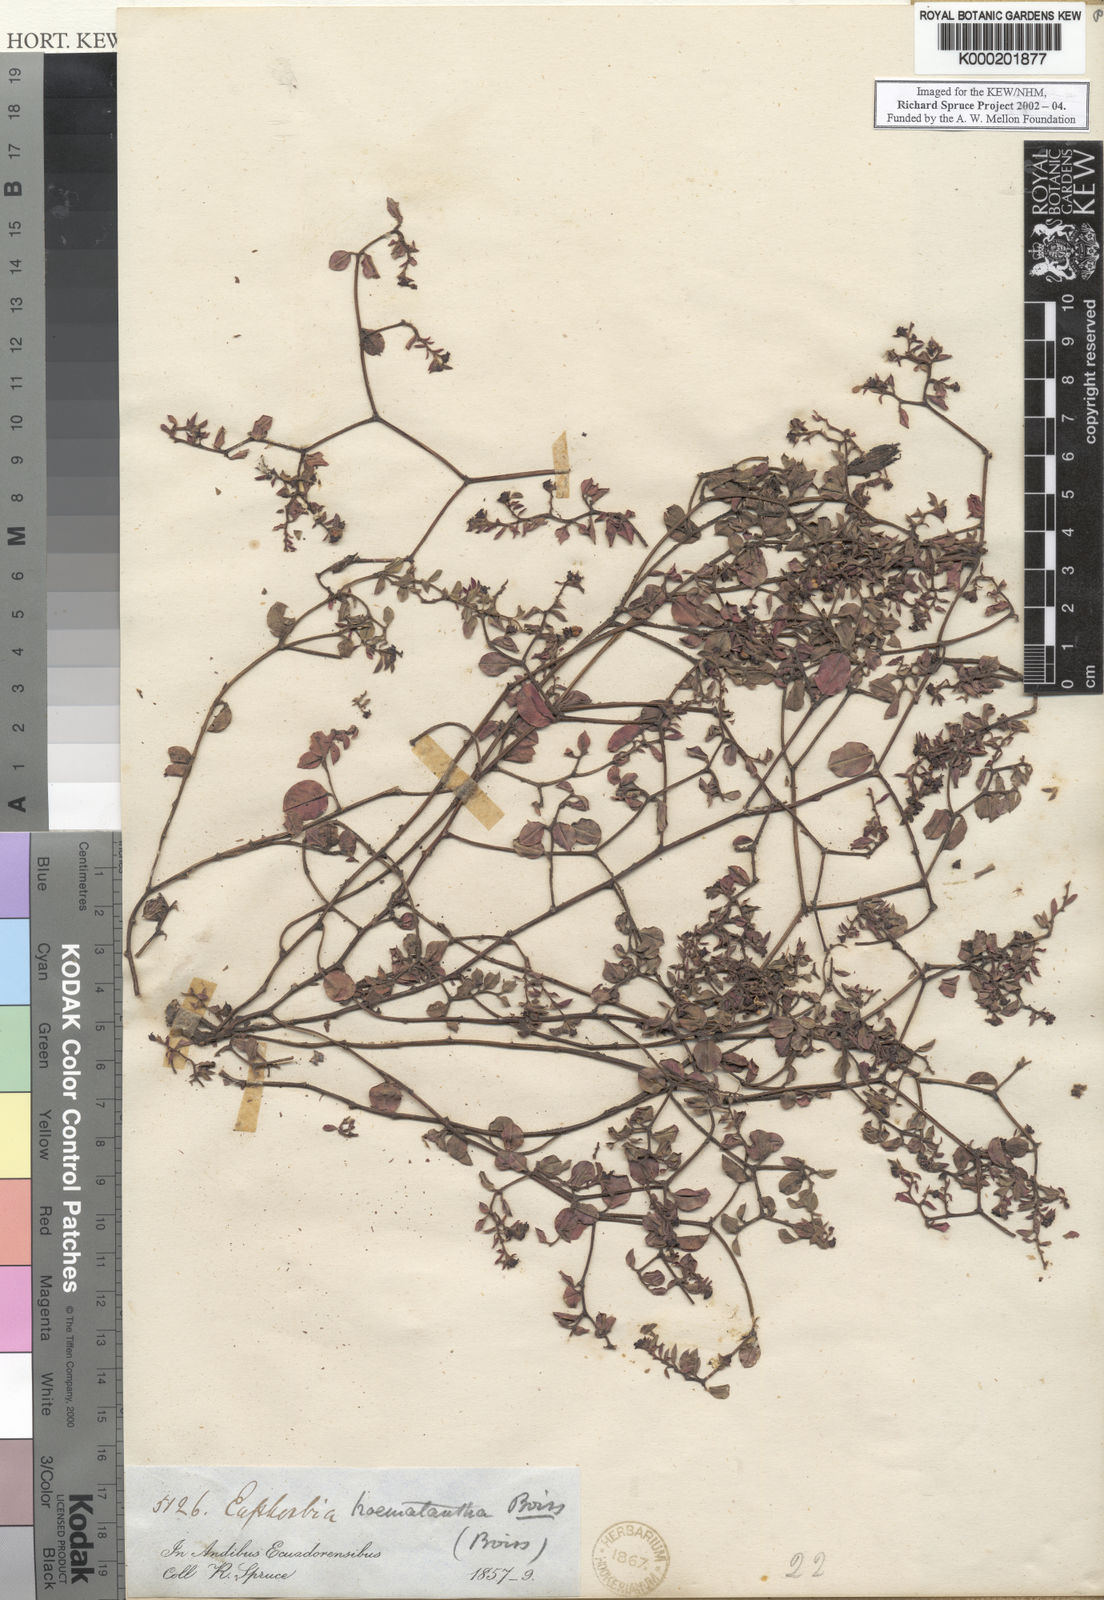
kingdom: Plantae
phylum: Tracheophyta
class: Magnoliopsida
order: Malpighiales
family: Euphorbiaceae
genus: Euphorbia
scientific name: Euphorbia haematantha
